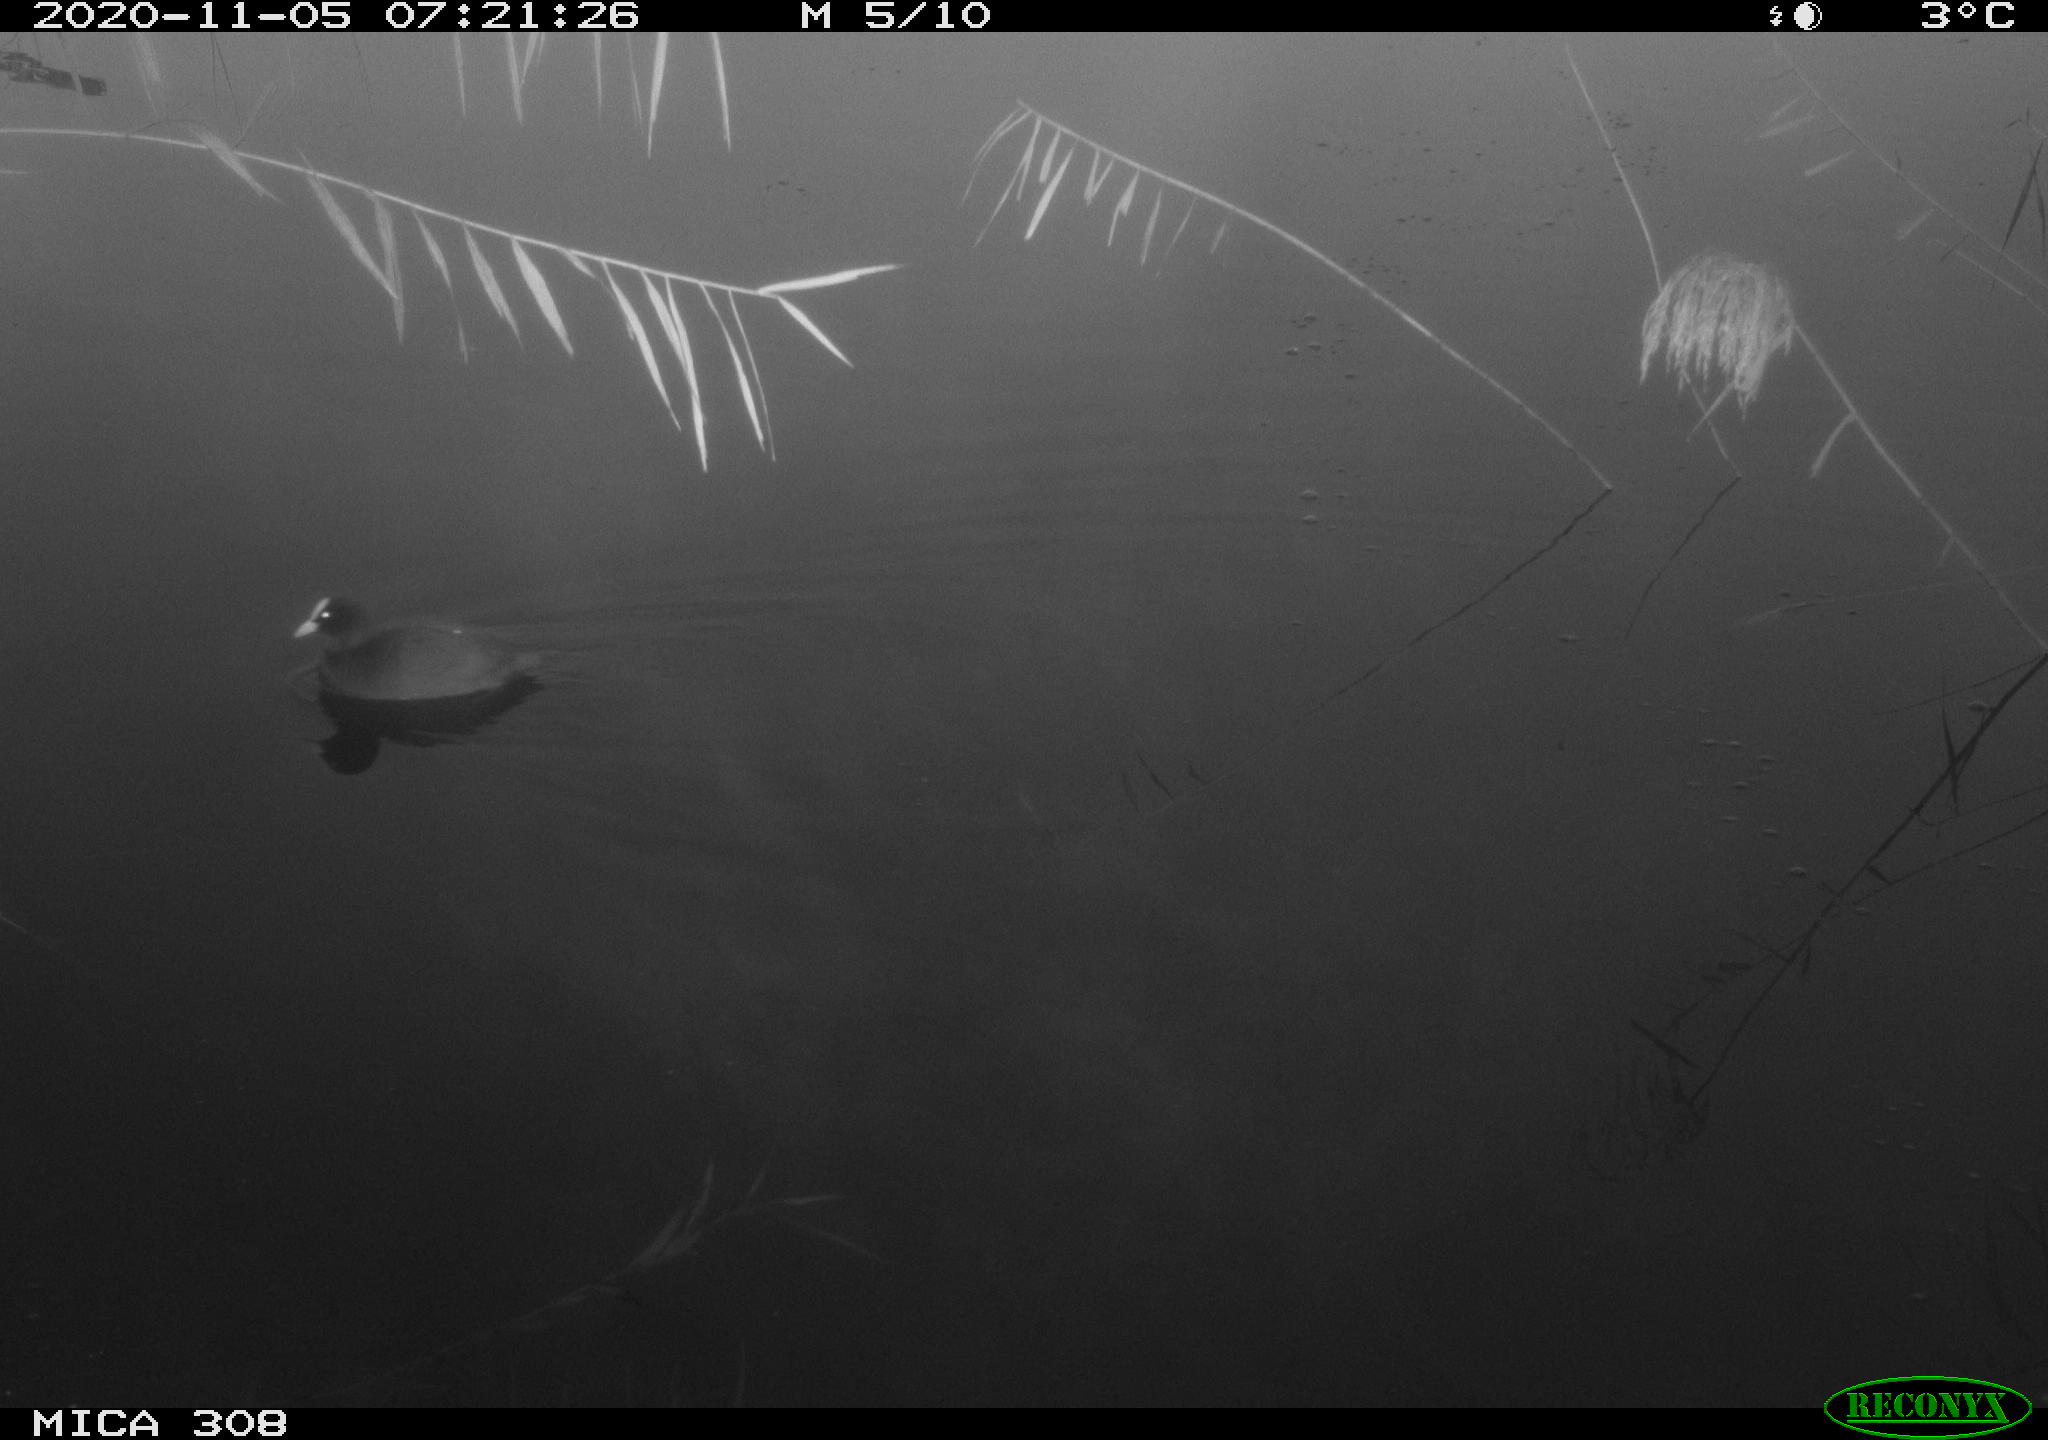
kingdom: Animalia
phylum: Chordata
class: Aves
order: Gruiformes
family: Rallidae
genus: Fulica
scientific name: Fulica atra
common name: Eurasian coot
